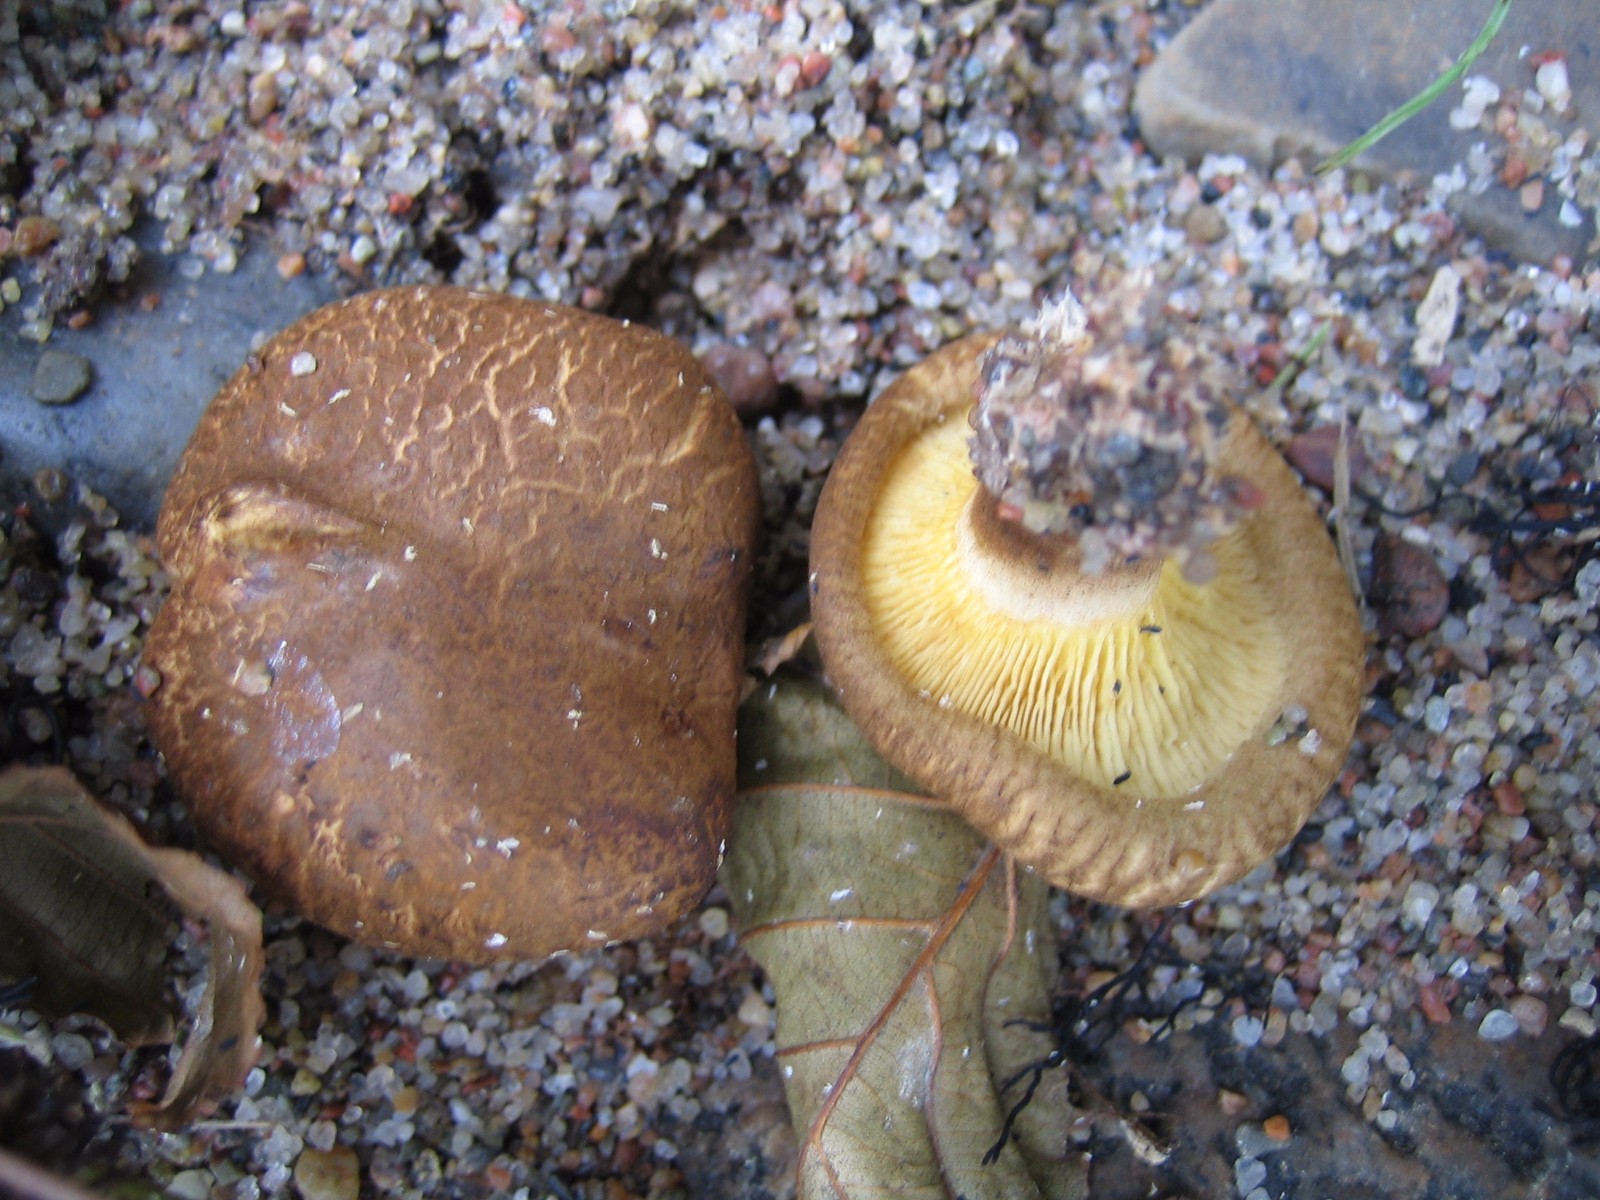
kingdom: Fungi
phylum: Basidiomycota
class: Agaricomycetes
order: Boletales
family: Paxillaceae
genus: Paxillus
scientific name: Paxillus rubicundulus
